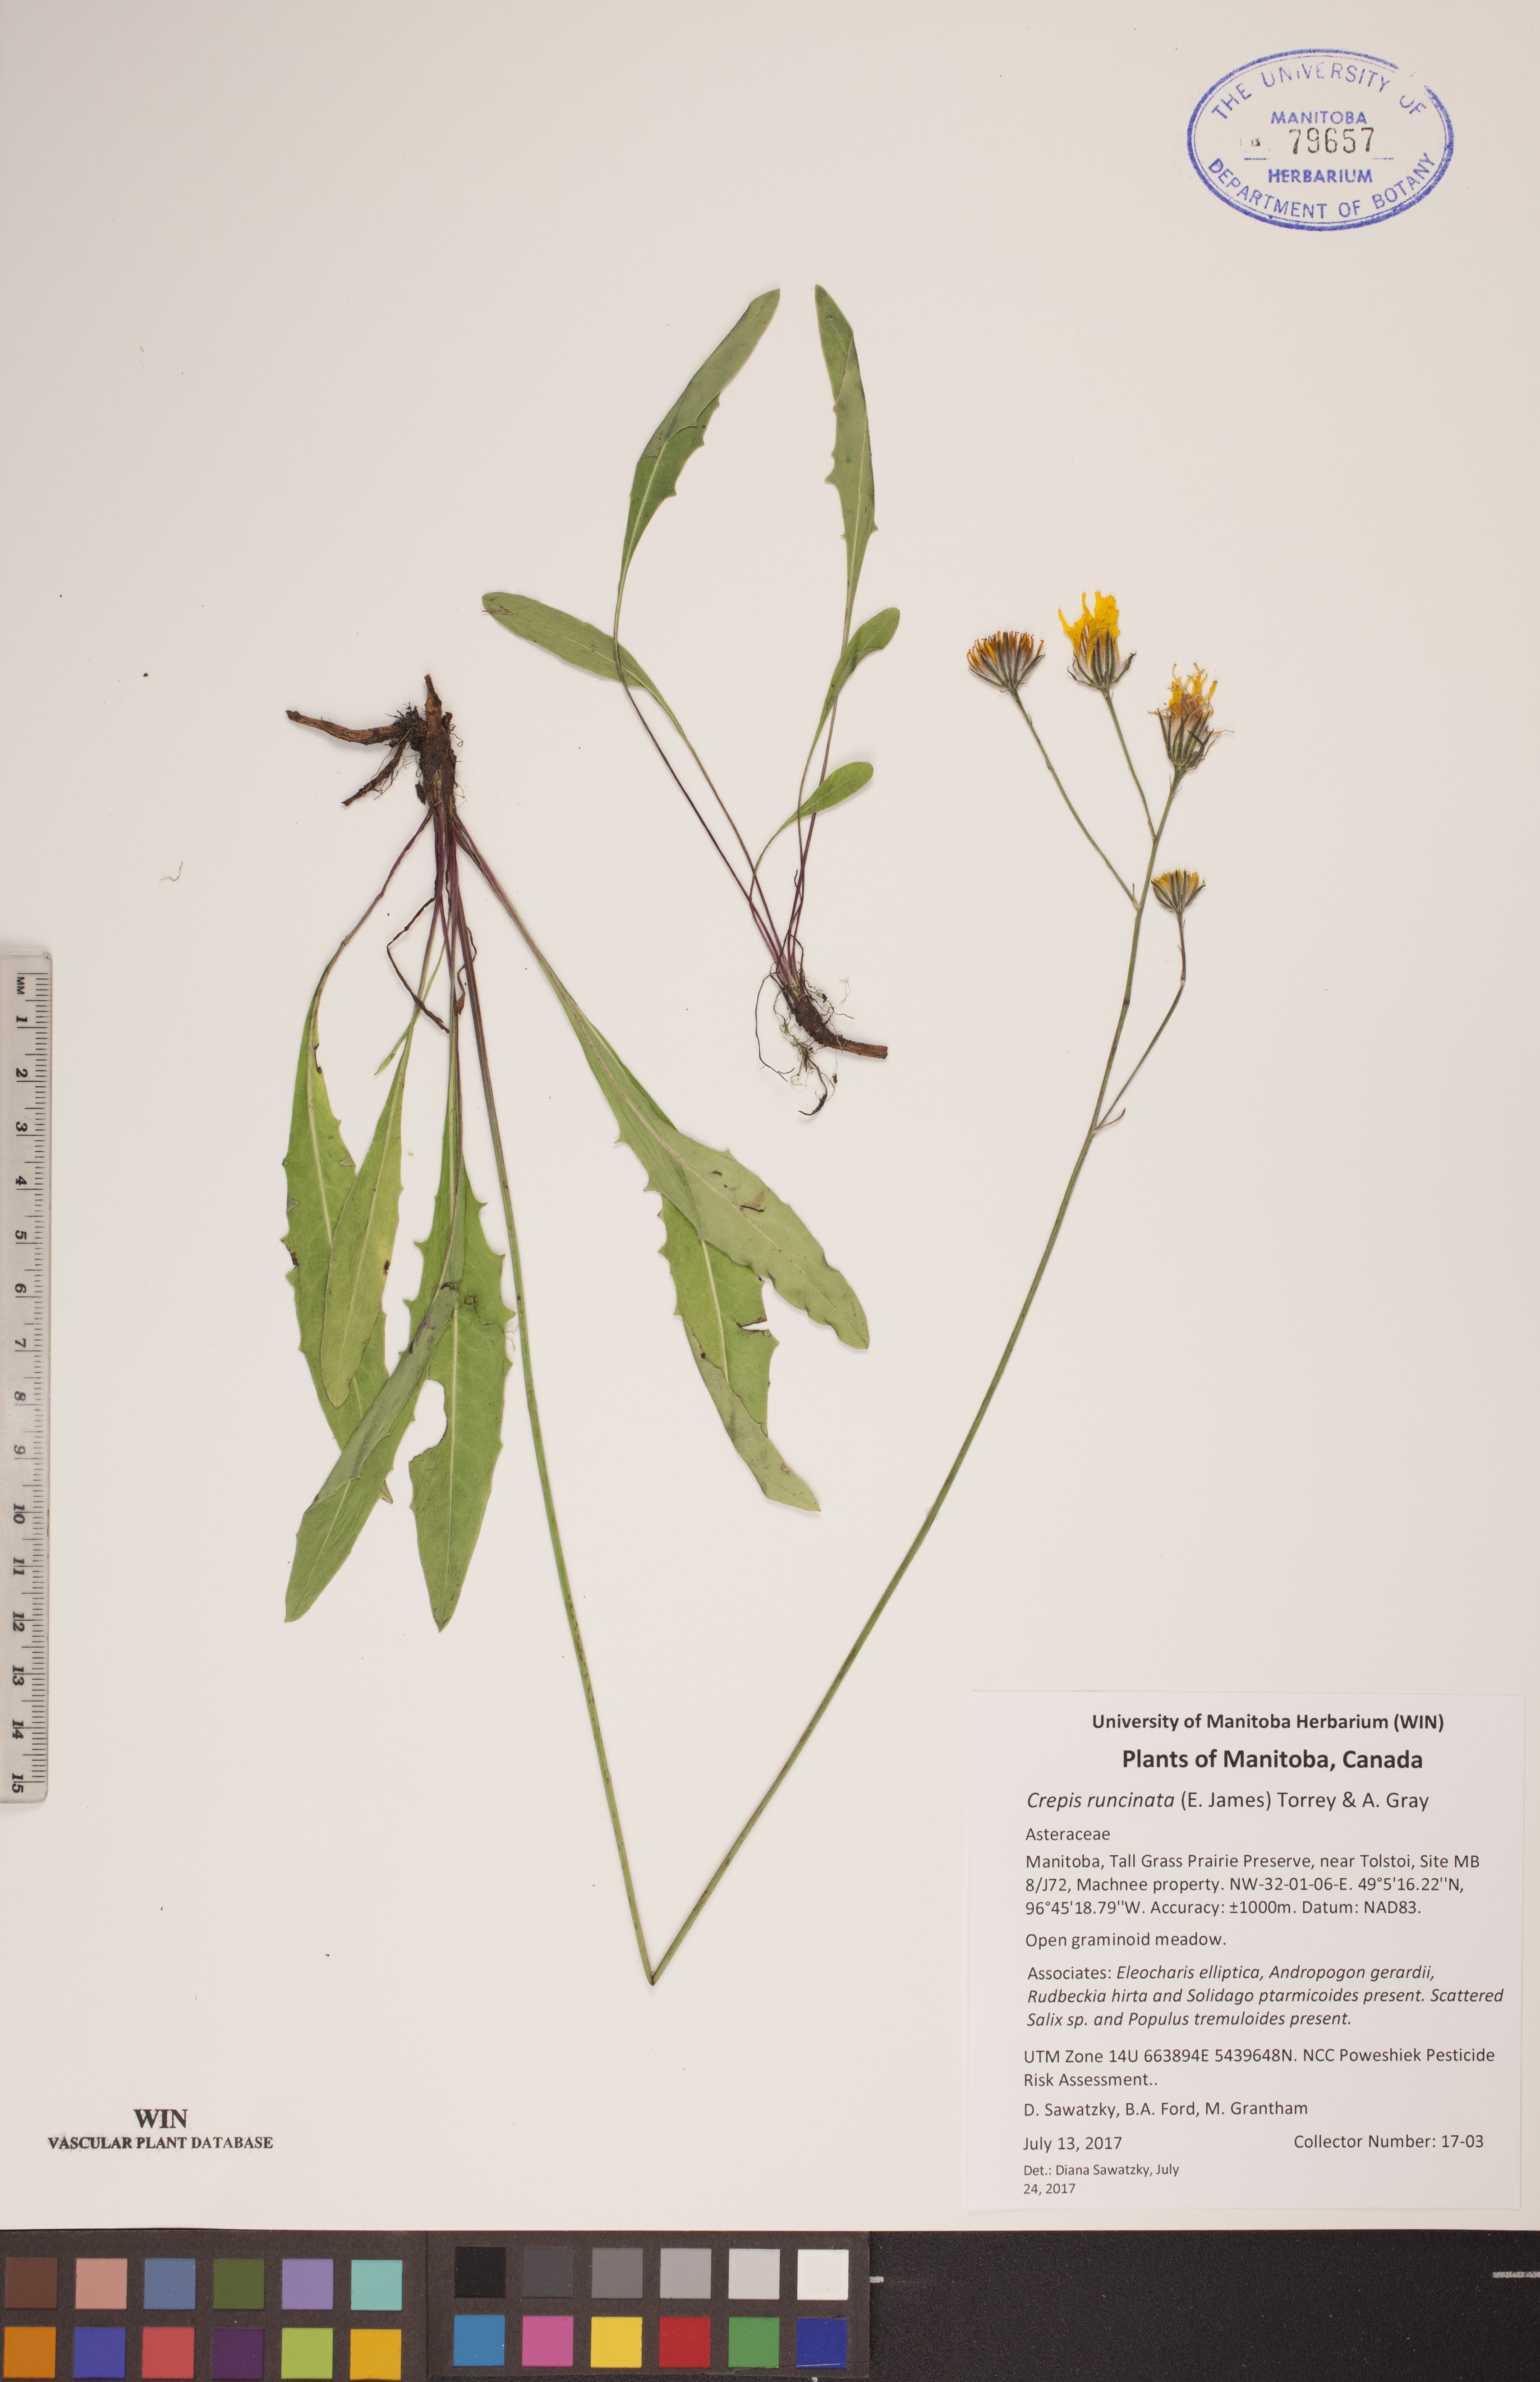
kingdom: Plantae
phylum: Tracheophyta
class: Magnoliopsida
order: Asterales
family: Asteraceae
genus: Crepis
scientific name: Crepis runcinata
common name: Dandelion hawksbeard
